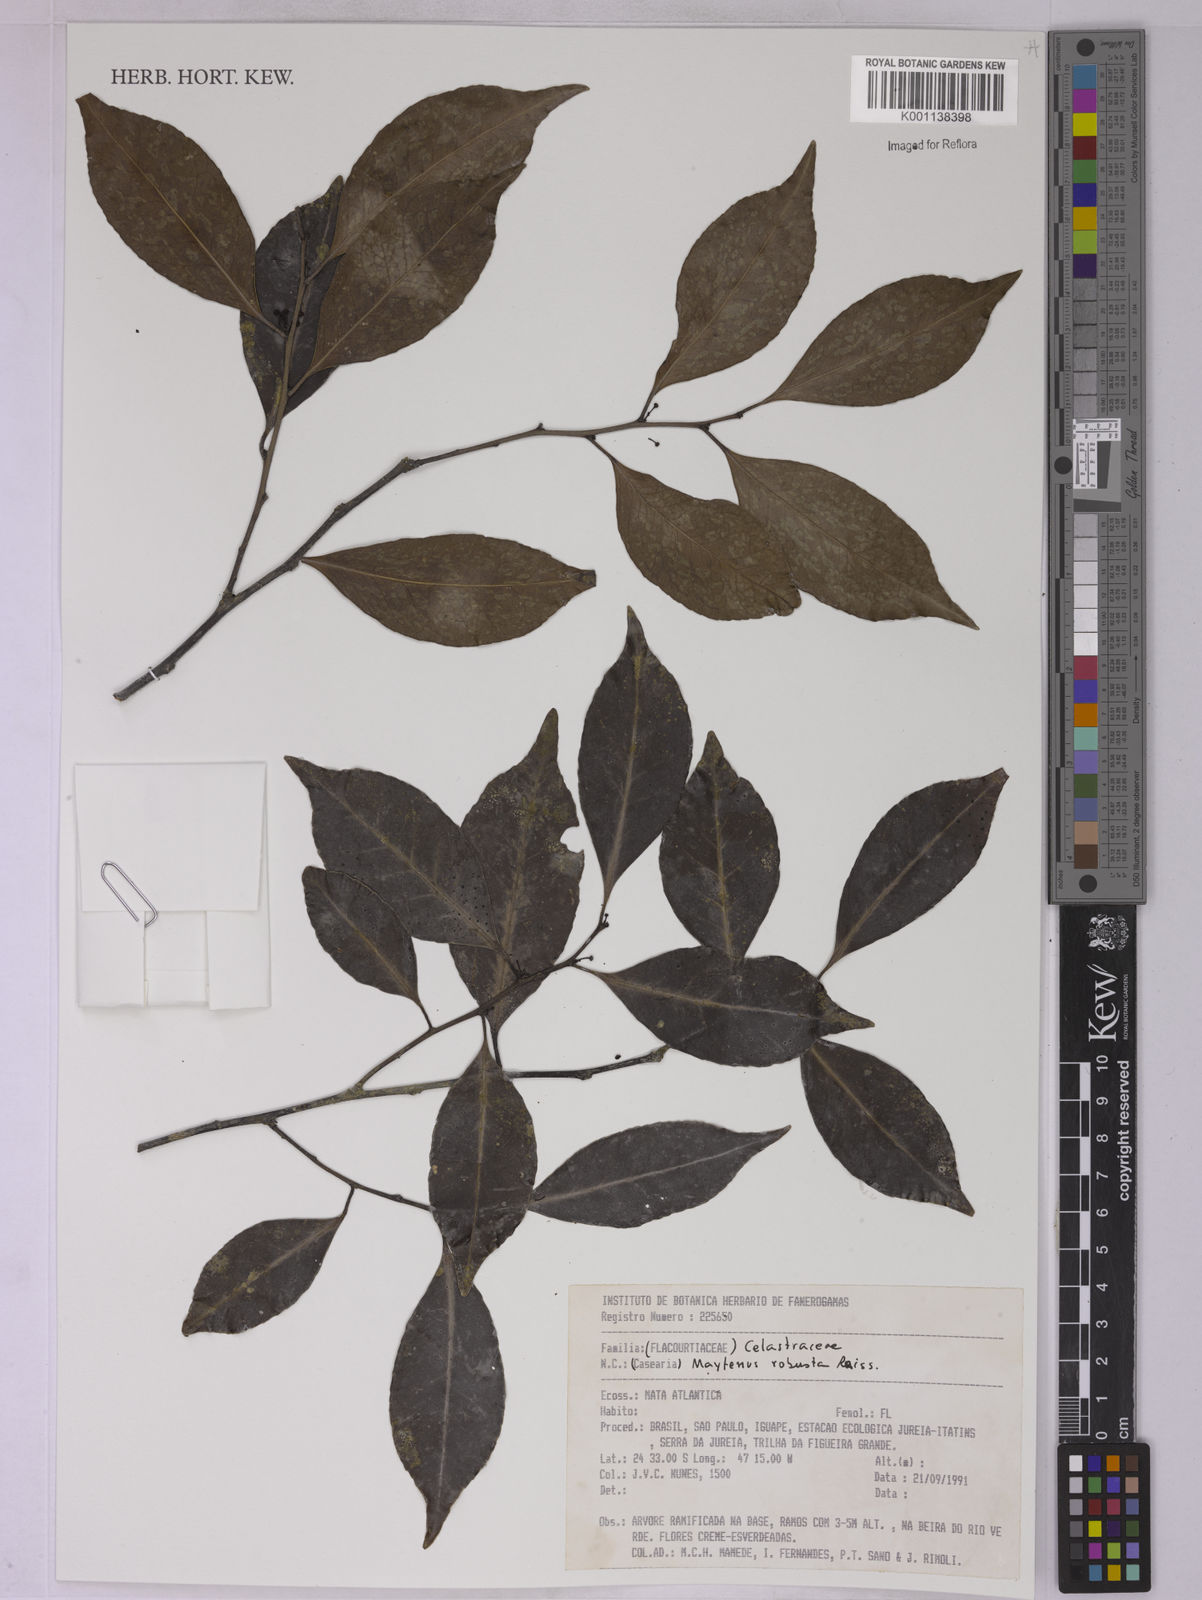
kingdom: Plantae
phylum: Tracheophyta
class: Magnoliopsida
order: Celastrales
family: Celastraceae
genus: Monteverdia
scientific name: Monteverdia robusta
